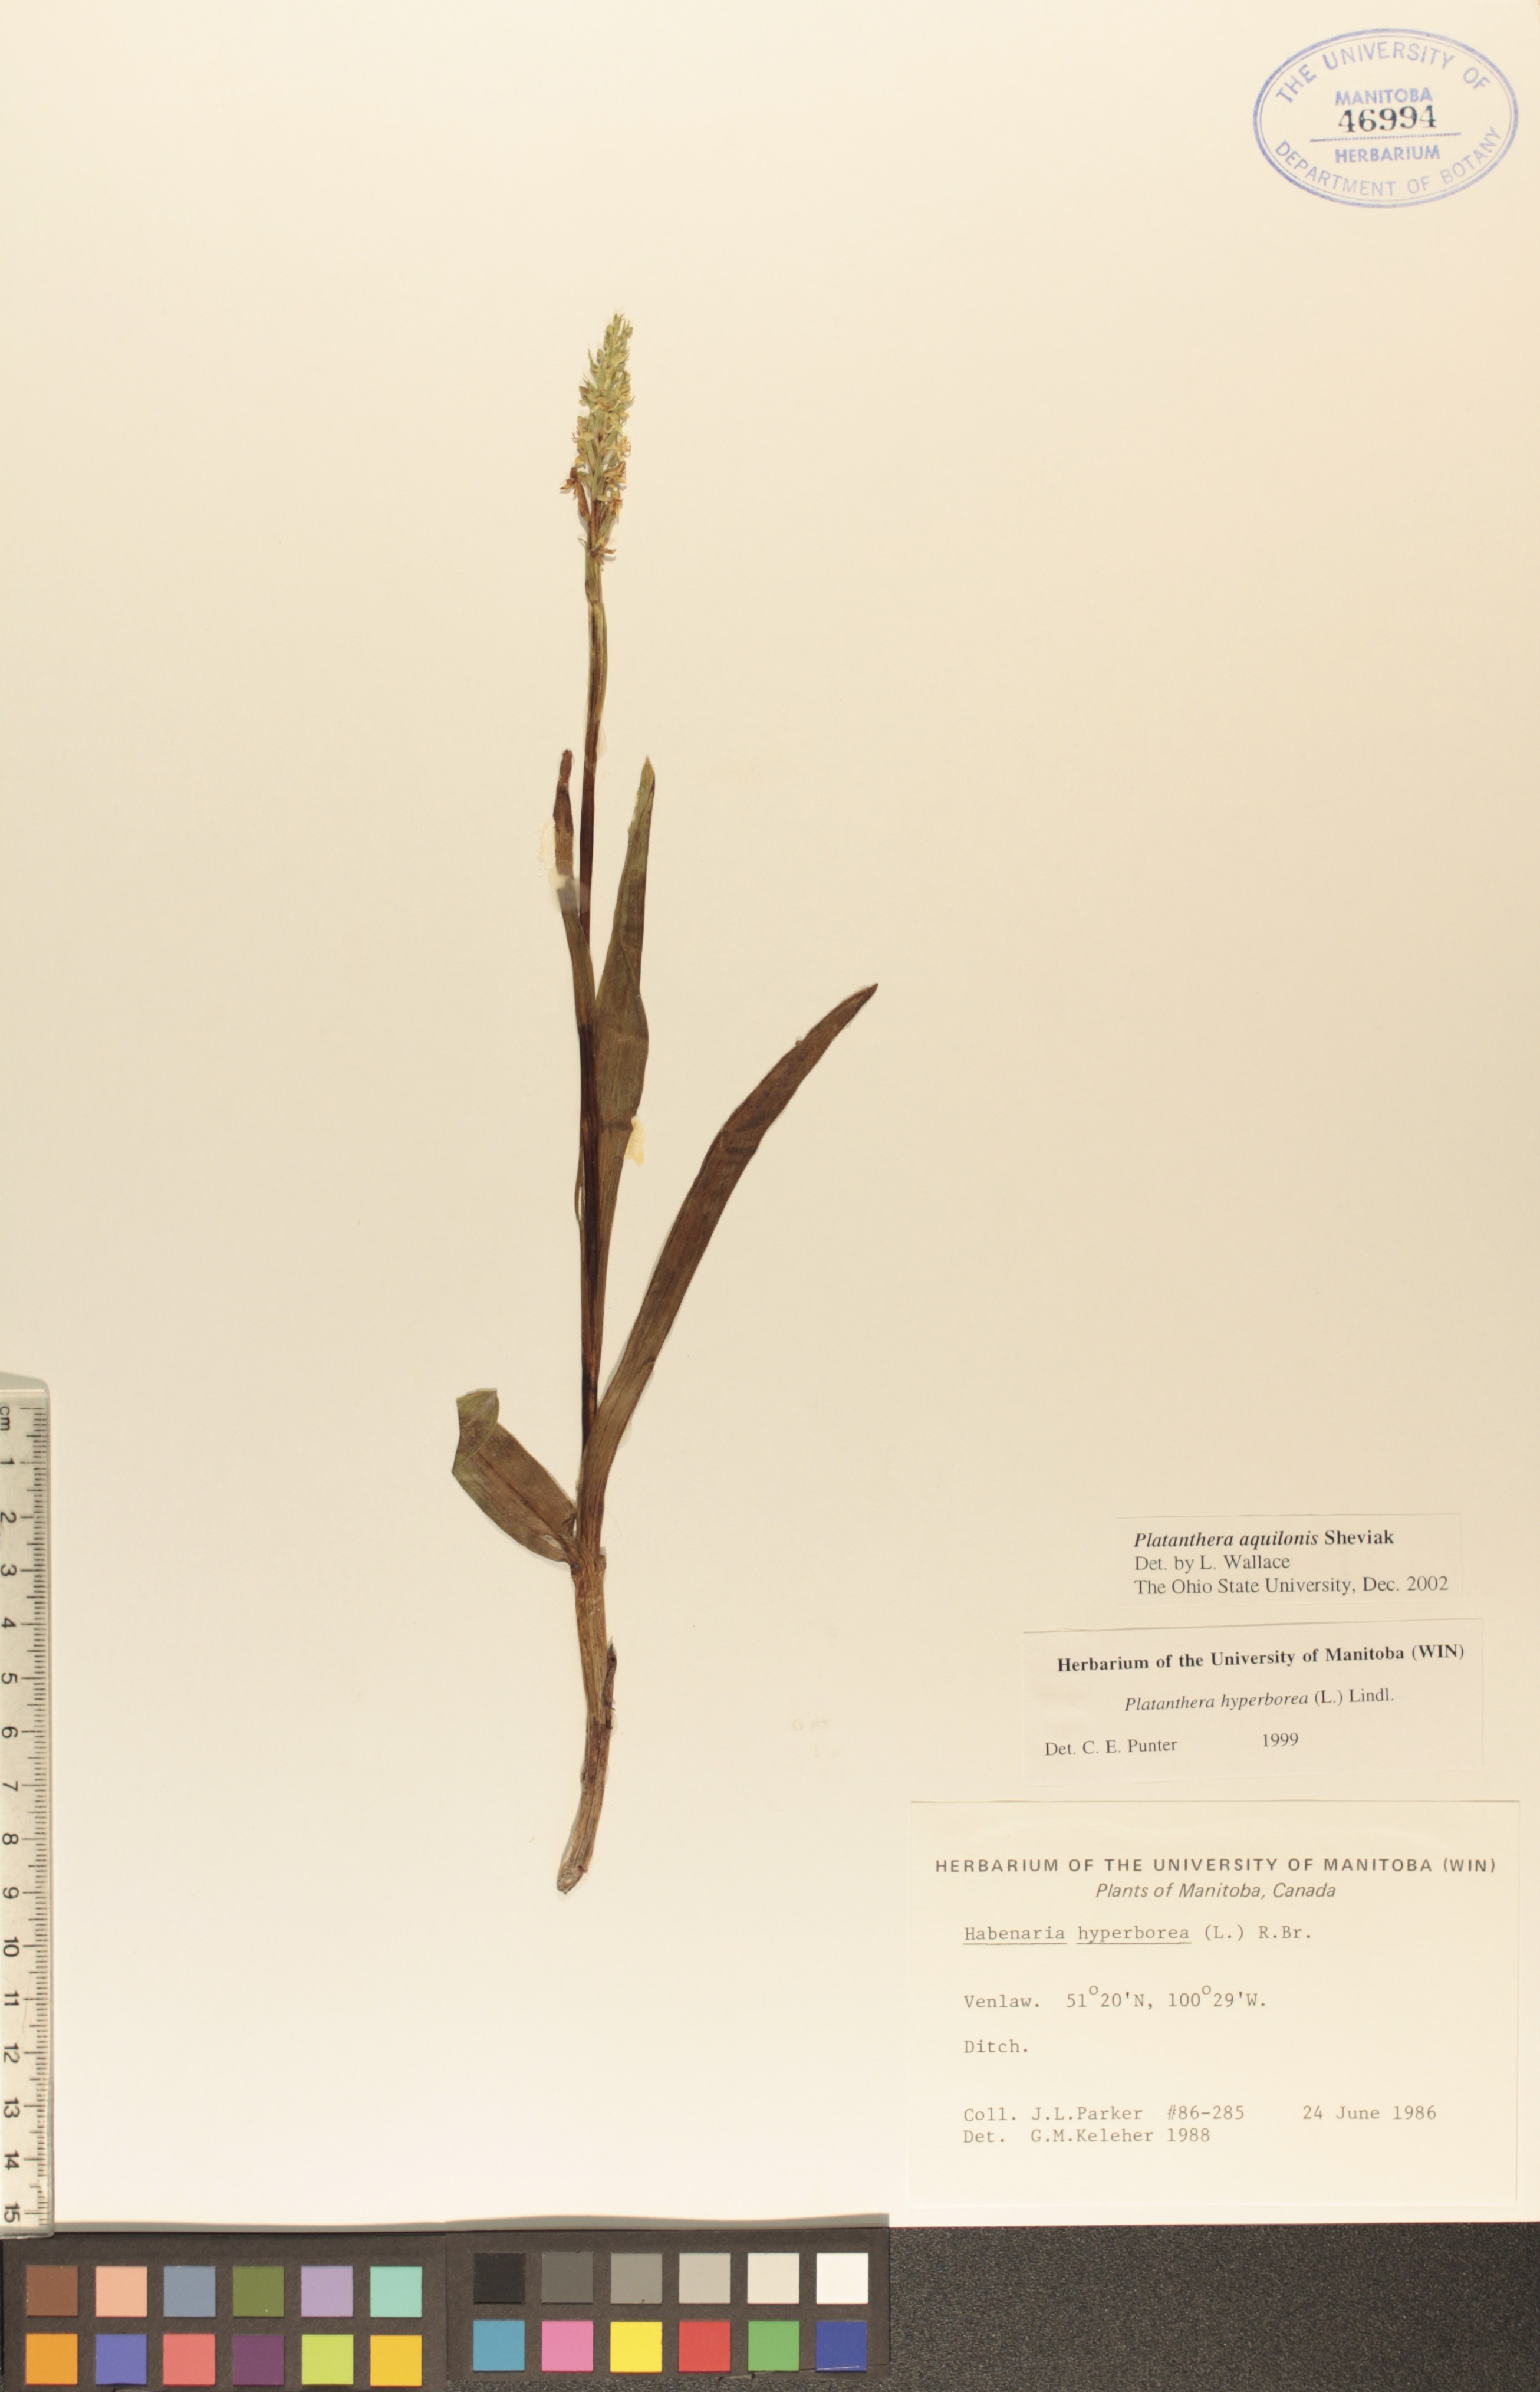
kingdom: Plantae
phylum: Tracheophyta
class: Liliopsida
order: Asparagales
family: Orchidaceae
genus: Platanthera
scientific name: Platanthera aquilonis
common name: Northern green orchid
